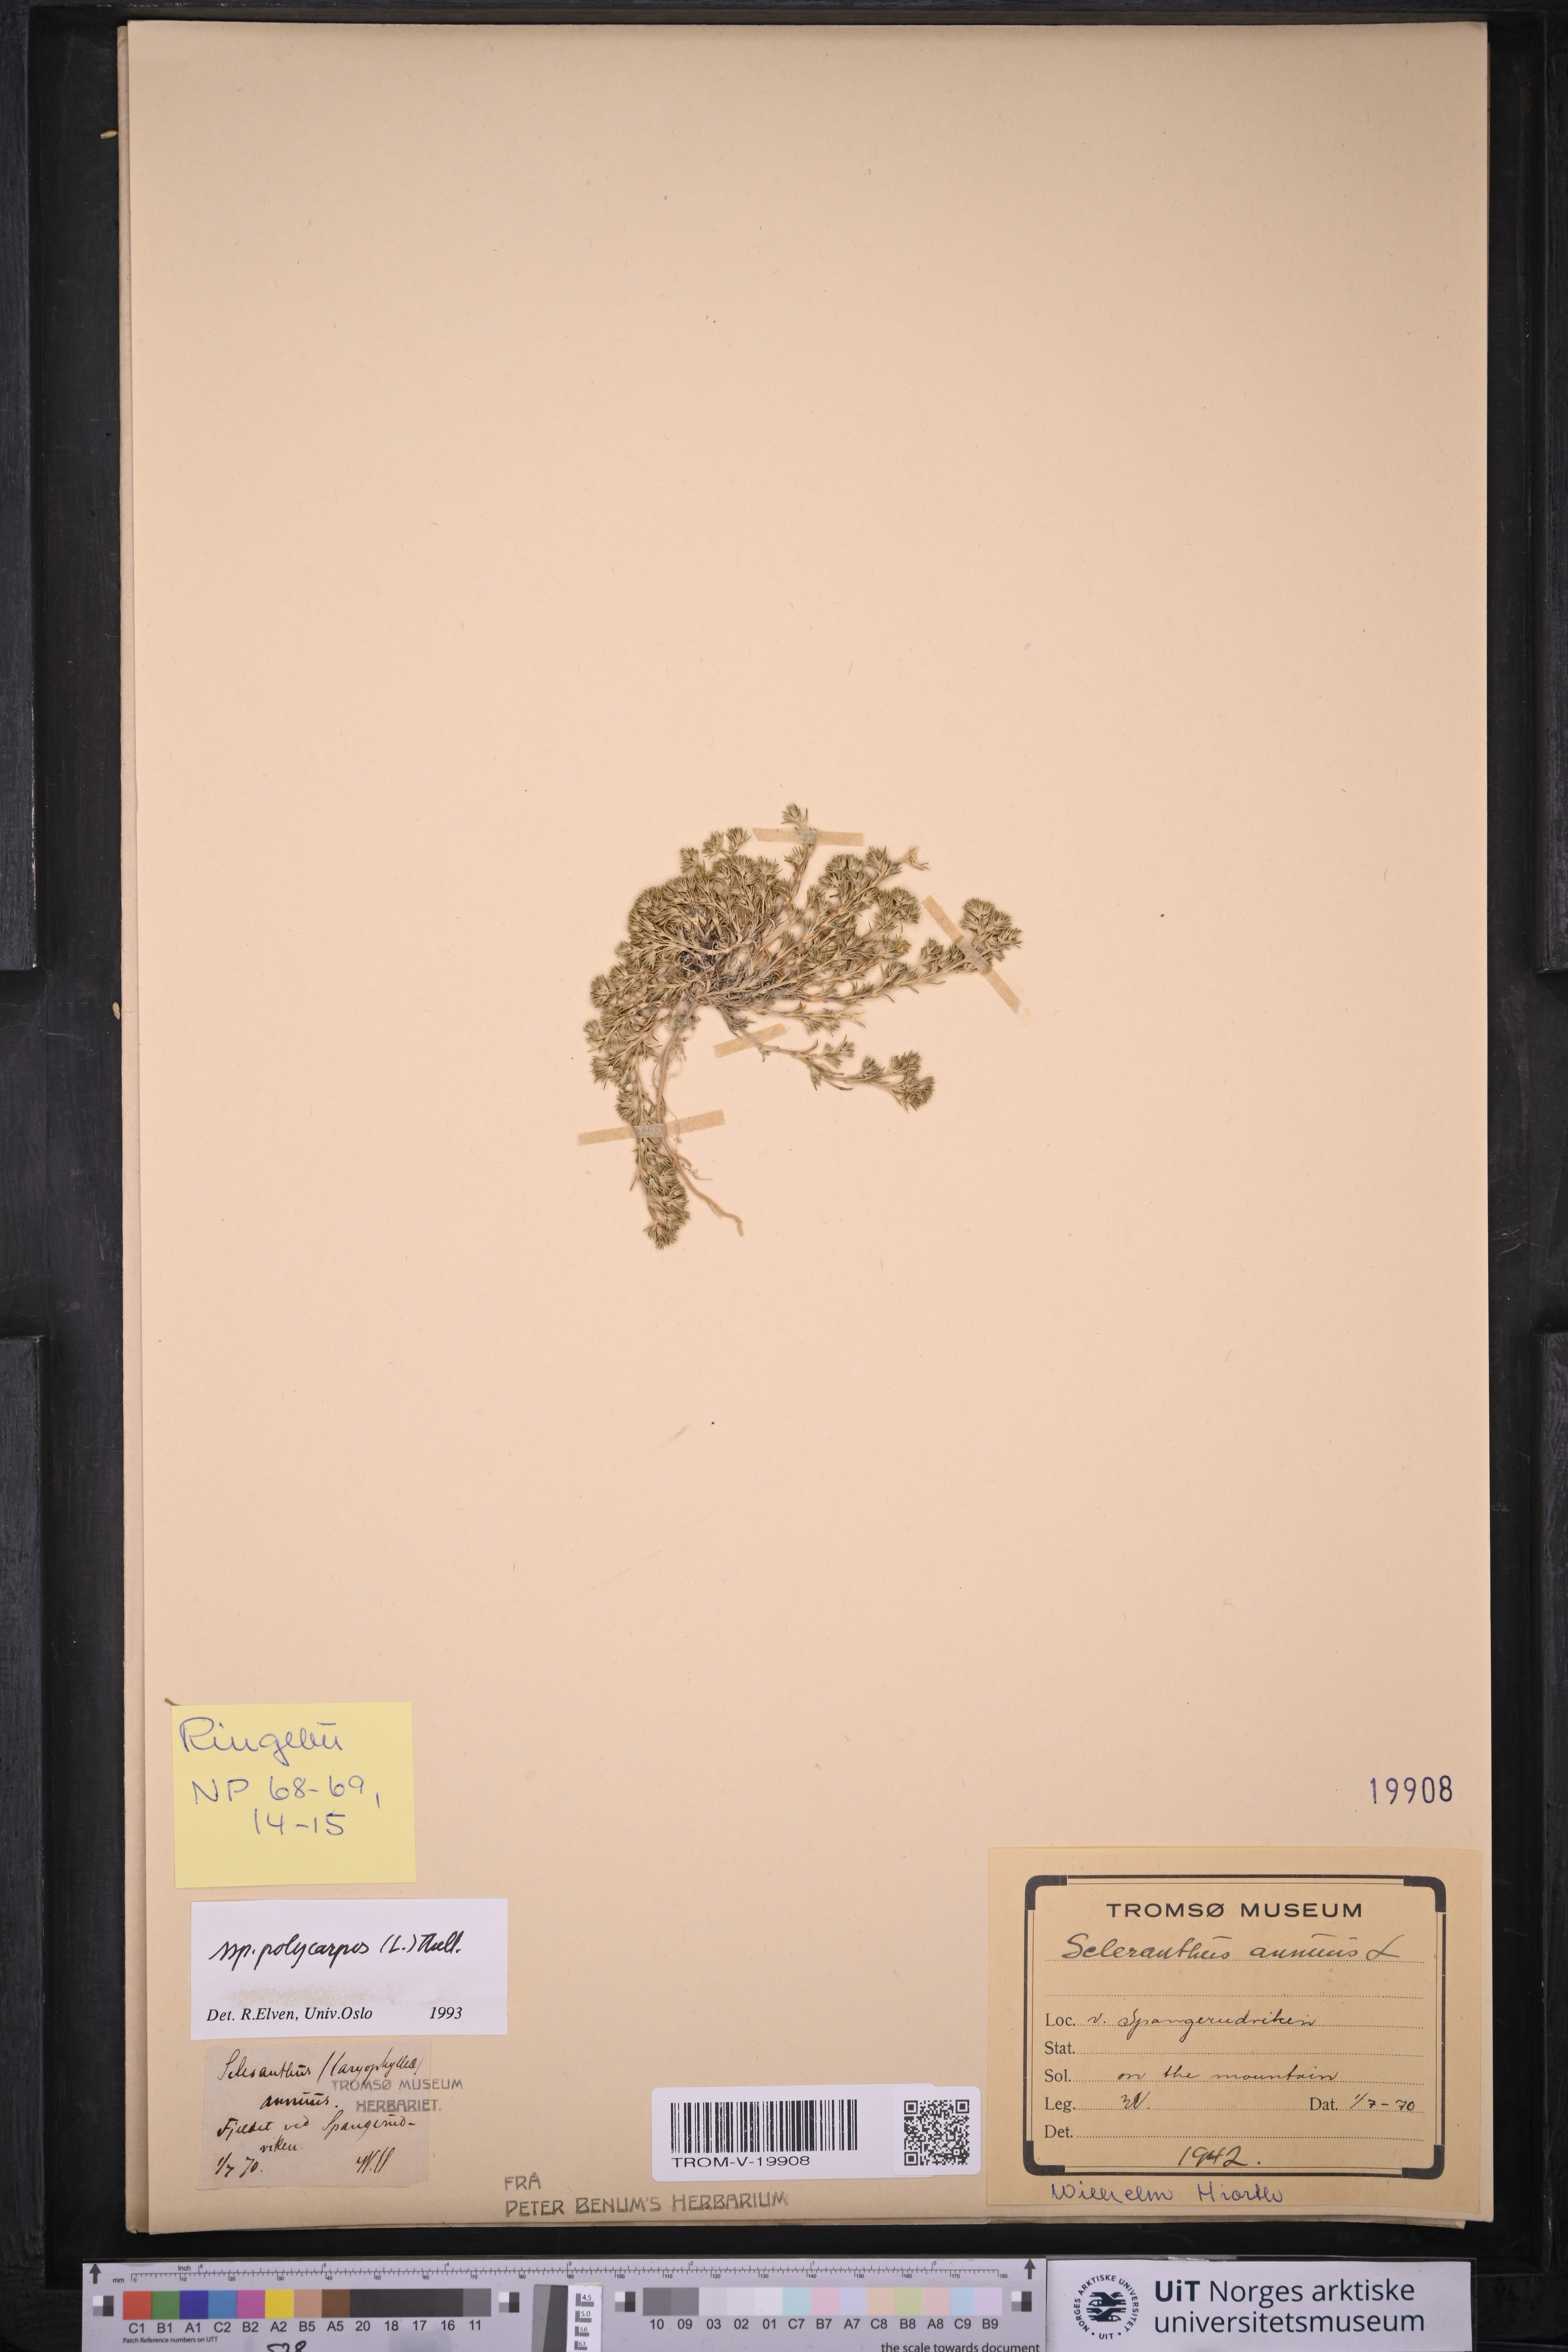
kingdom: Plantae
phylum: Tracheophyta
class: Magnoliopsida
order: Caryophyllales
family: Caryophyllaceae
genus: Scleranthus
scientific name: Scleranthus annuus
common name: Annual knawel
